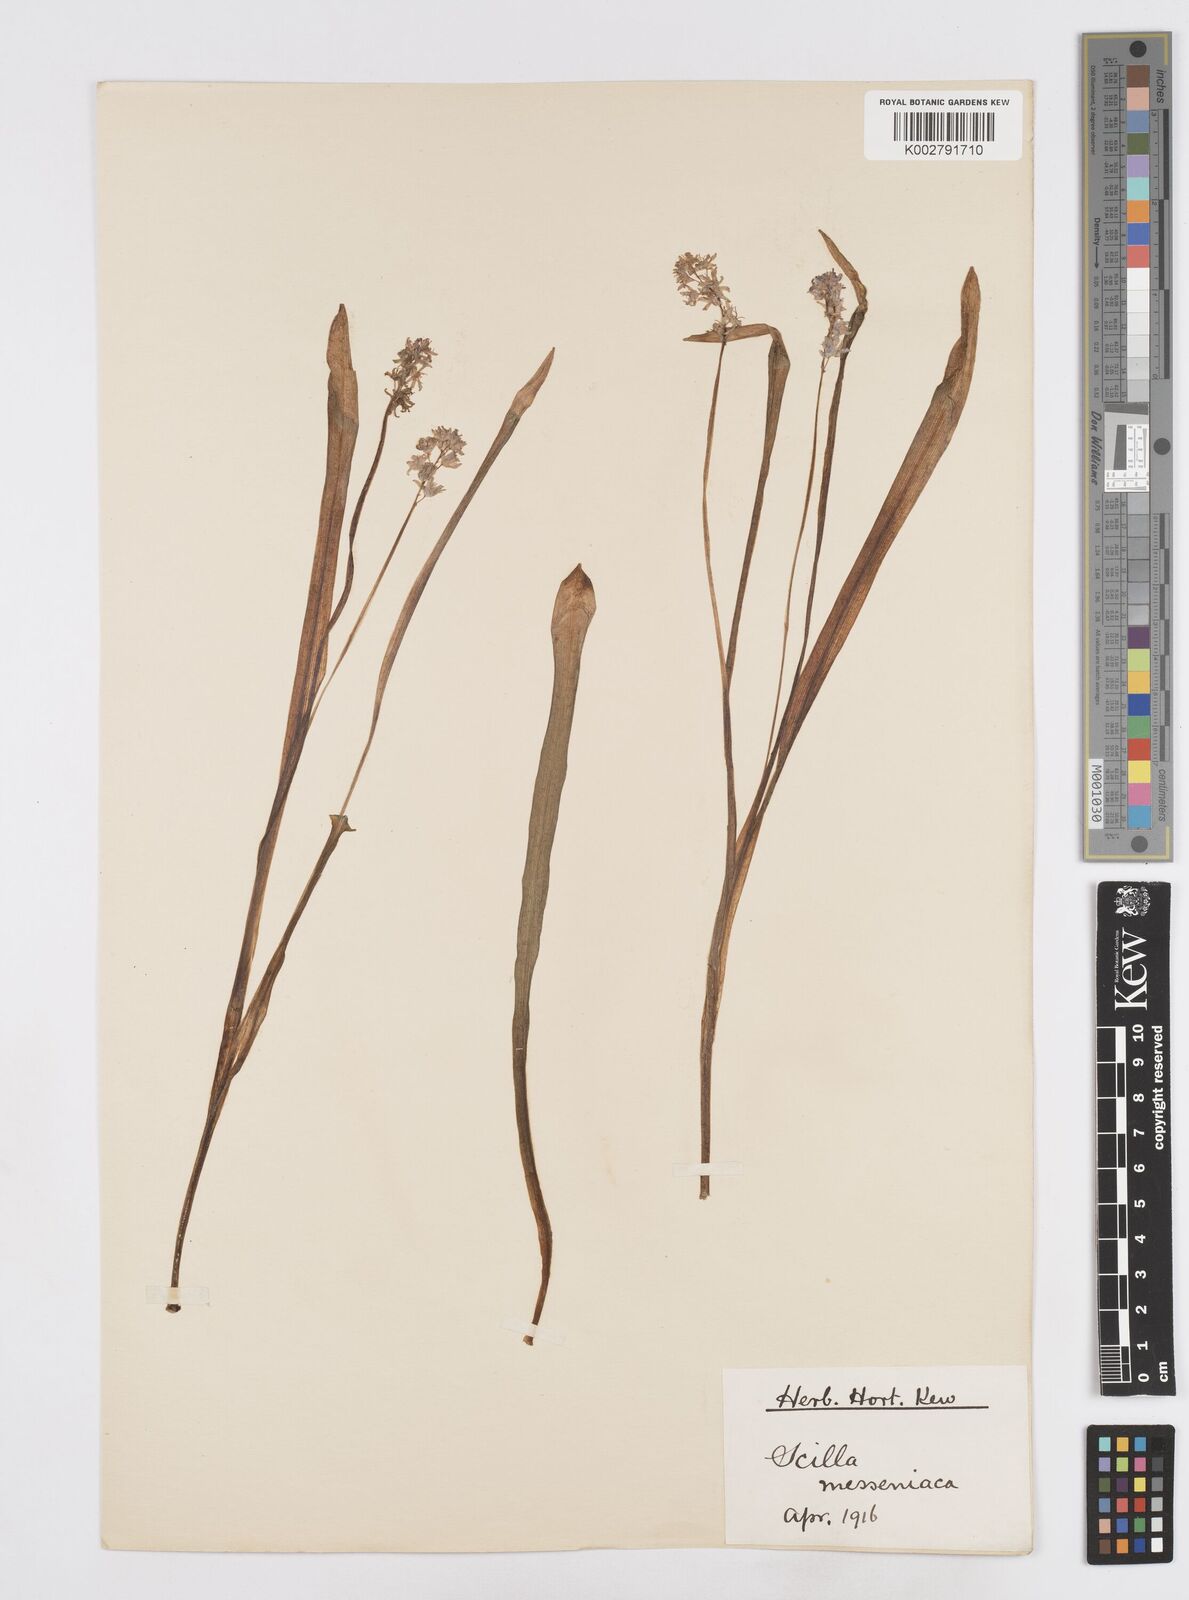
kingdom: Plantae
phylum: Tracheophyta
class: Liliopsida
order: Asparagales
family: Asparagaceae
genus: Scilla
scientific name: Scilla messeniaca
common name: Greek squill
